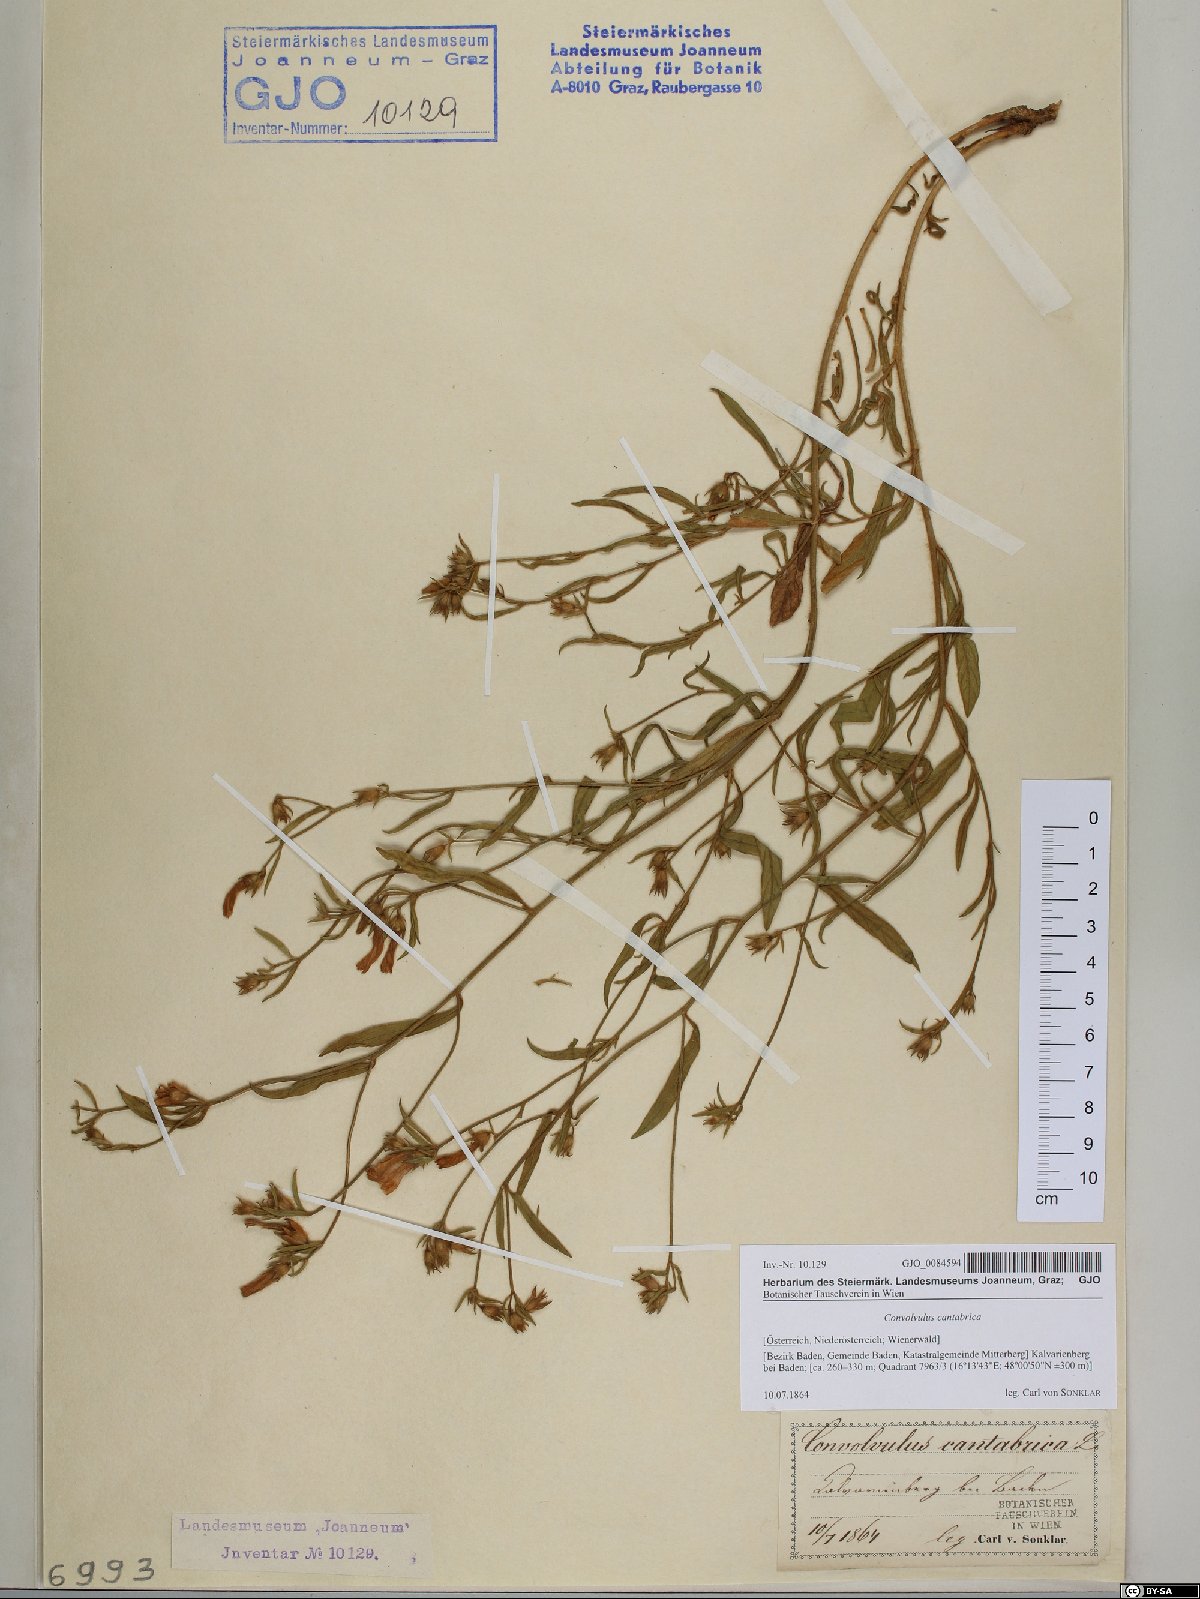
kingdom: Plantae
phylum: Tracheophyta
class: Magnoliopsida
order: Solanales
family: Convolvulaceae
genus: Convolvulus
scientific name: Convolvulus cantabrica
